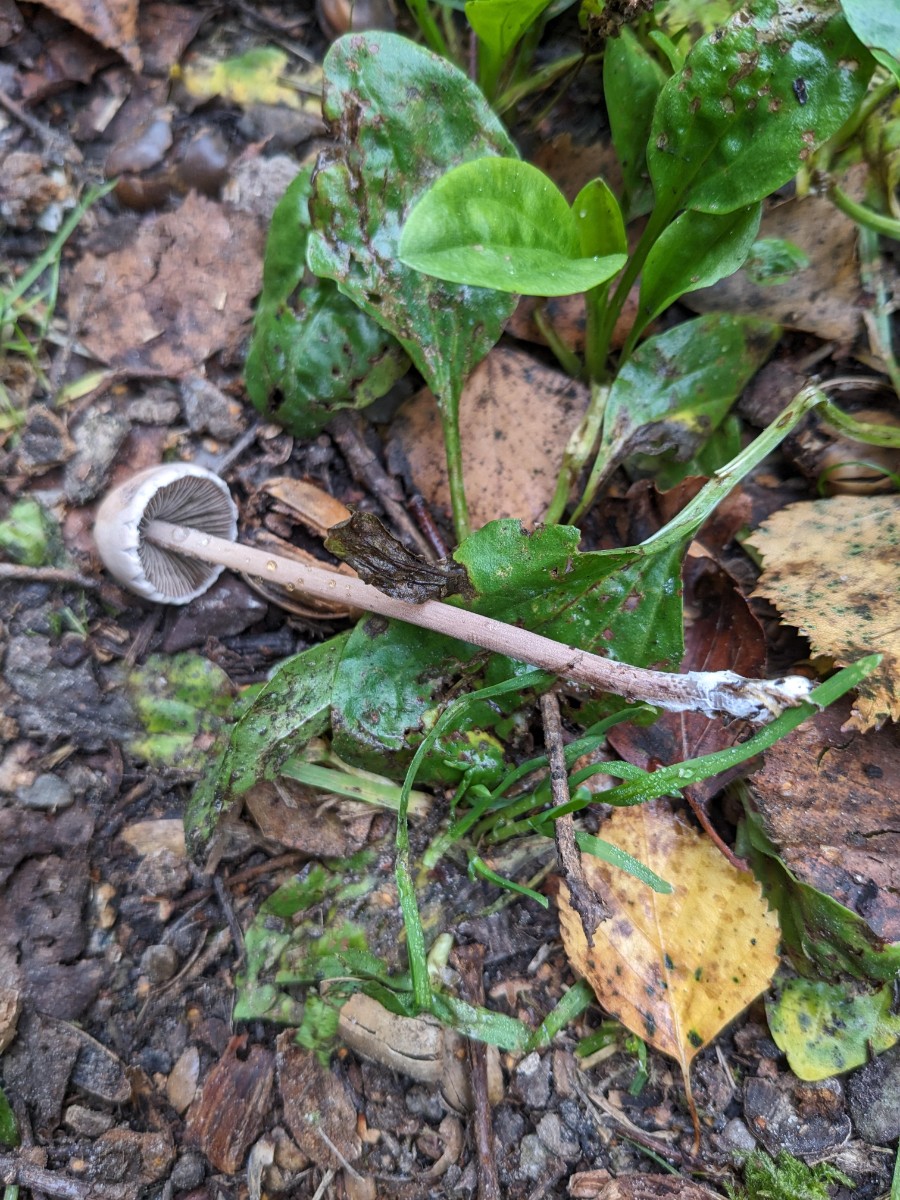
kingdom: Fungi
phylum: Basidiomycota
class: Agaricomycetes
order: Agaricales
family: Bolbitiaceae
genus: Panaeolus
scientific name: Panaeolus papilionaceus
